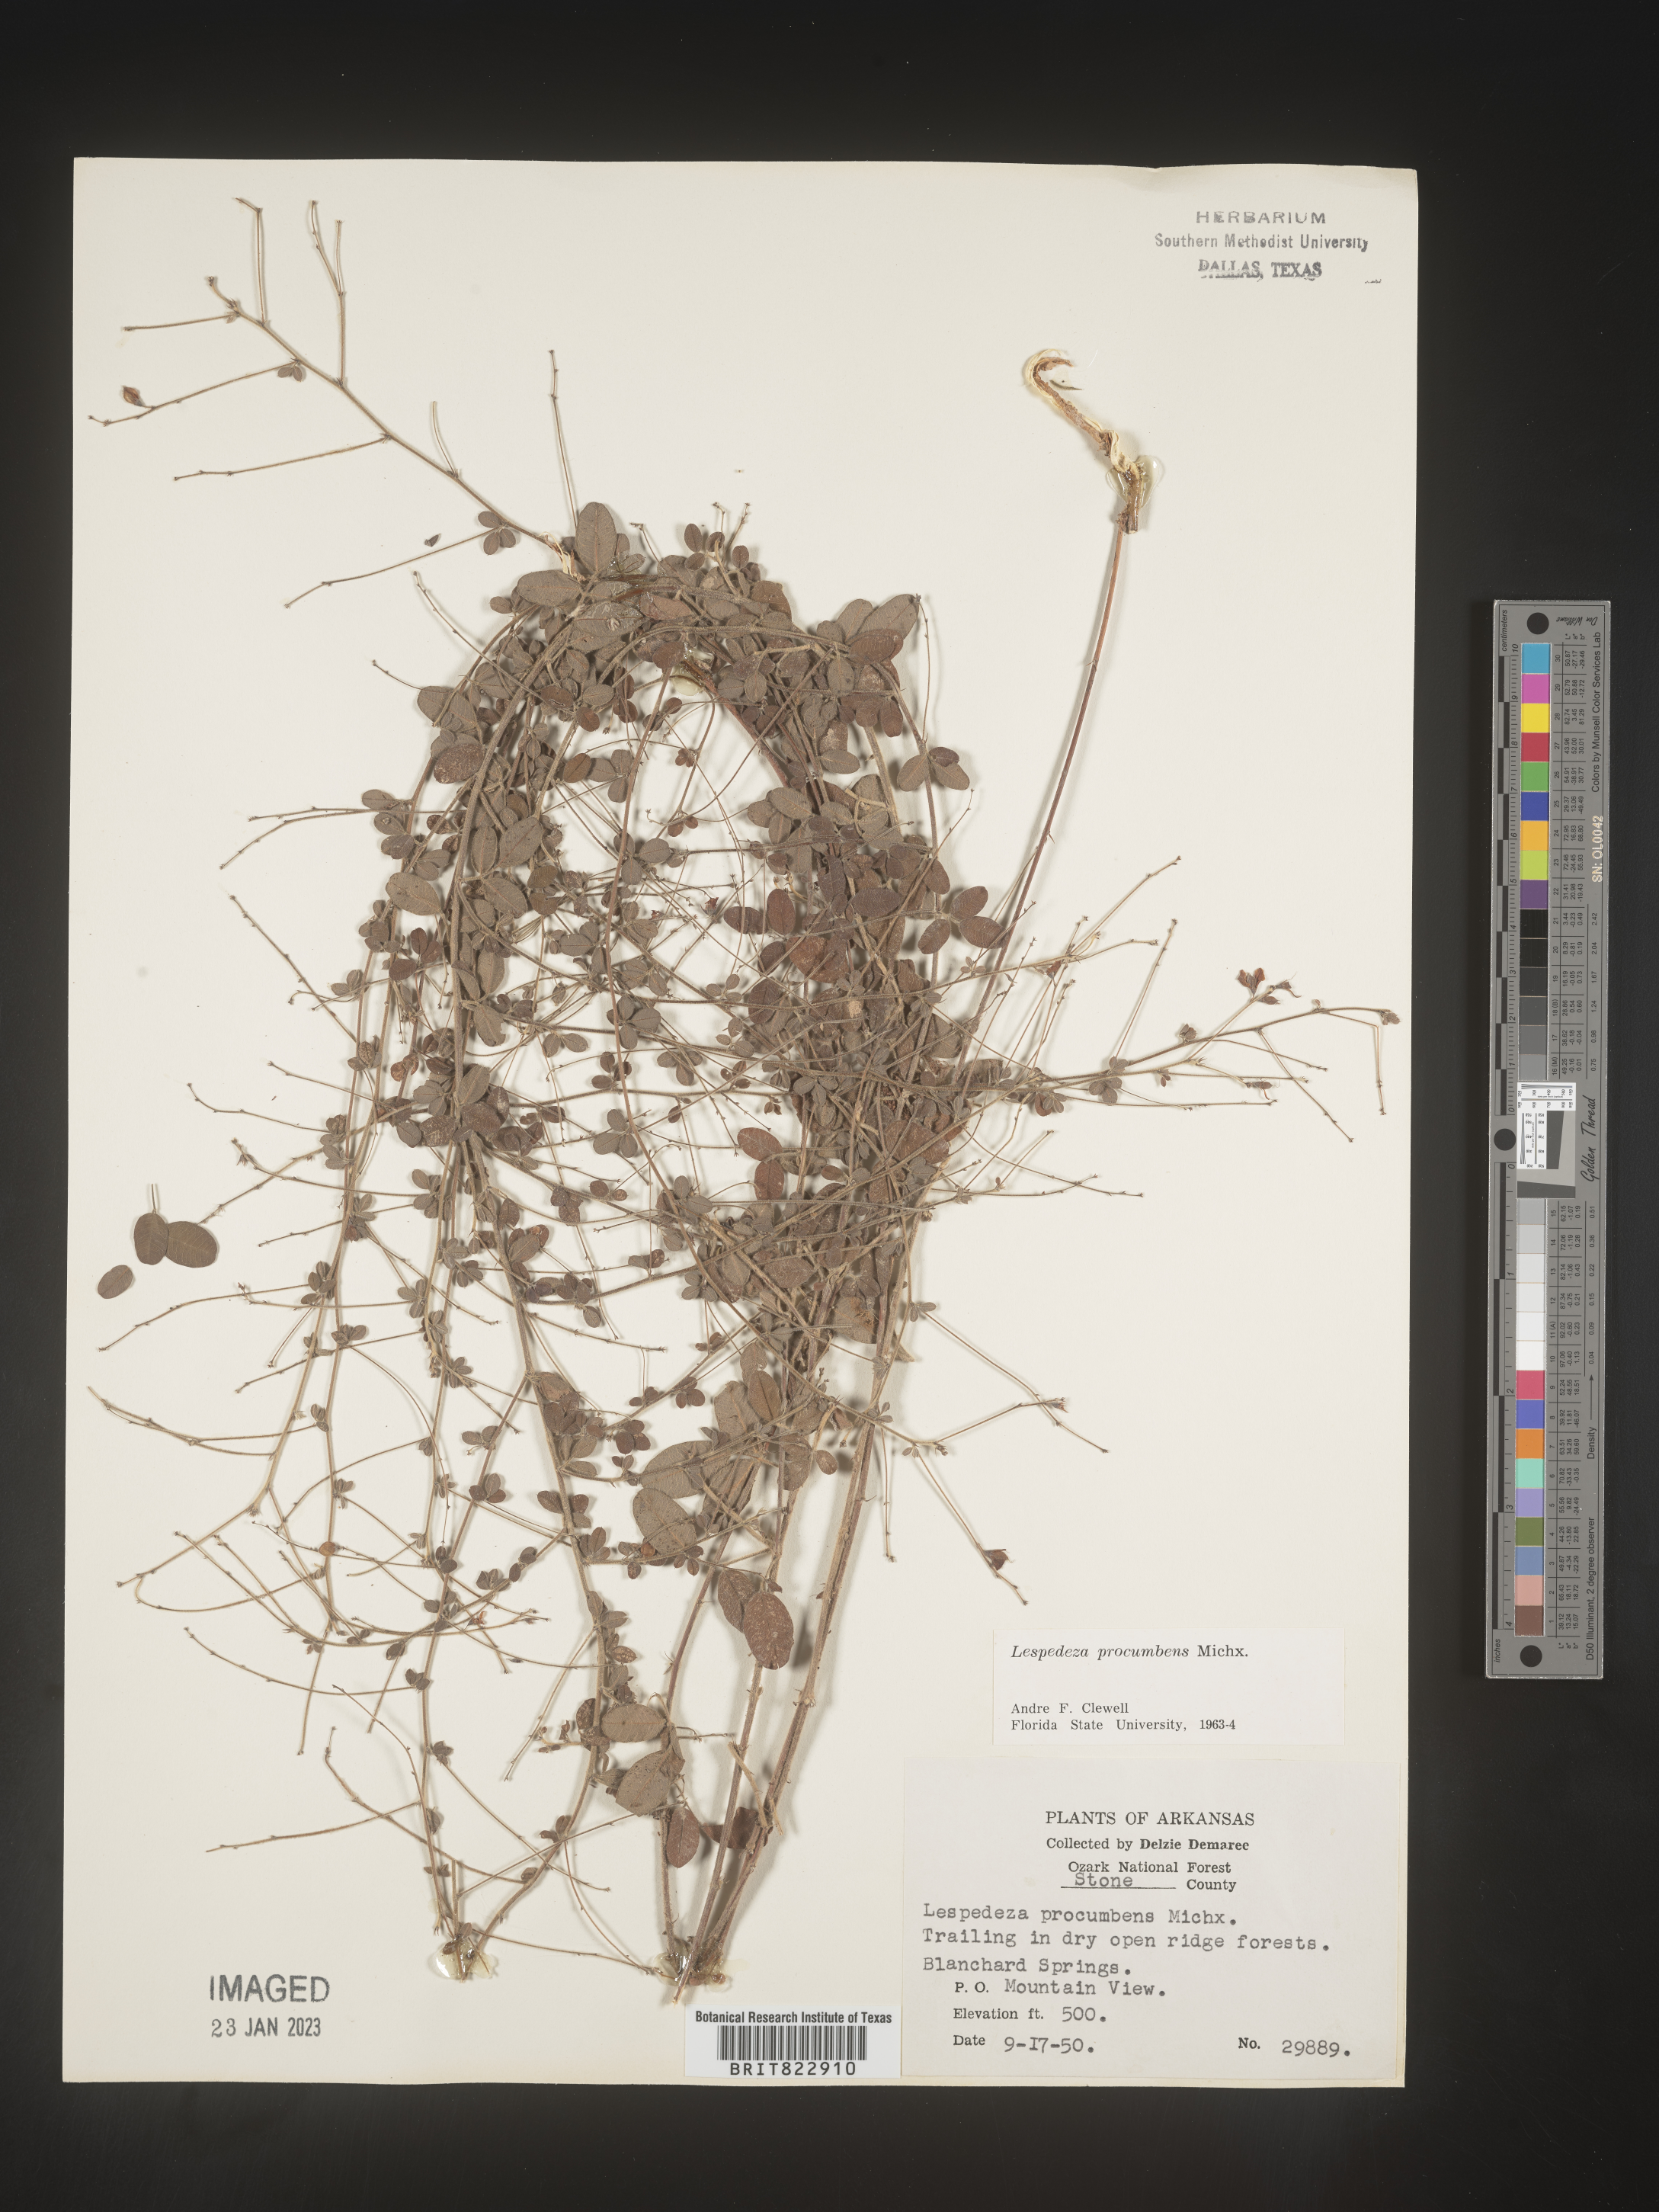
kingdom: Plantae
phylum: Tracheophyta
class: Magnoliopsida
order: Fabales
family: Fabaceae
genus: Lespedeza
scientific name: Lespedeza procumbens
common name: Downy trailing bush-clover
